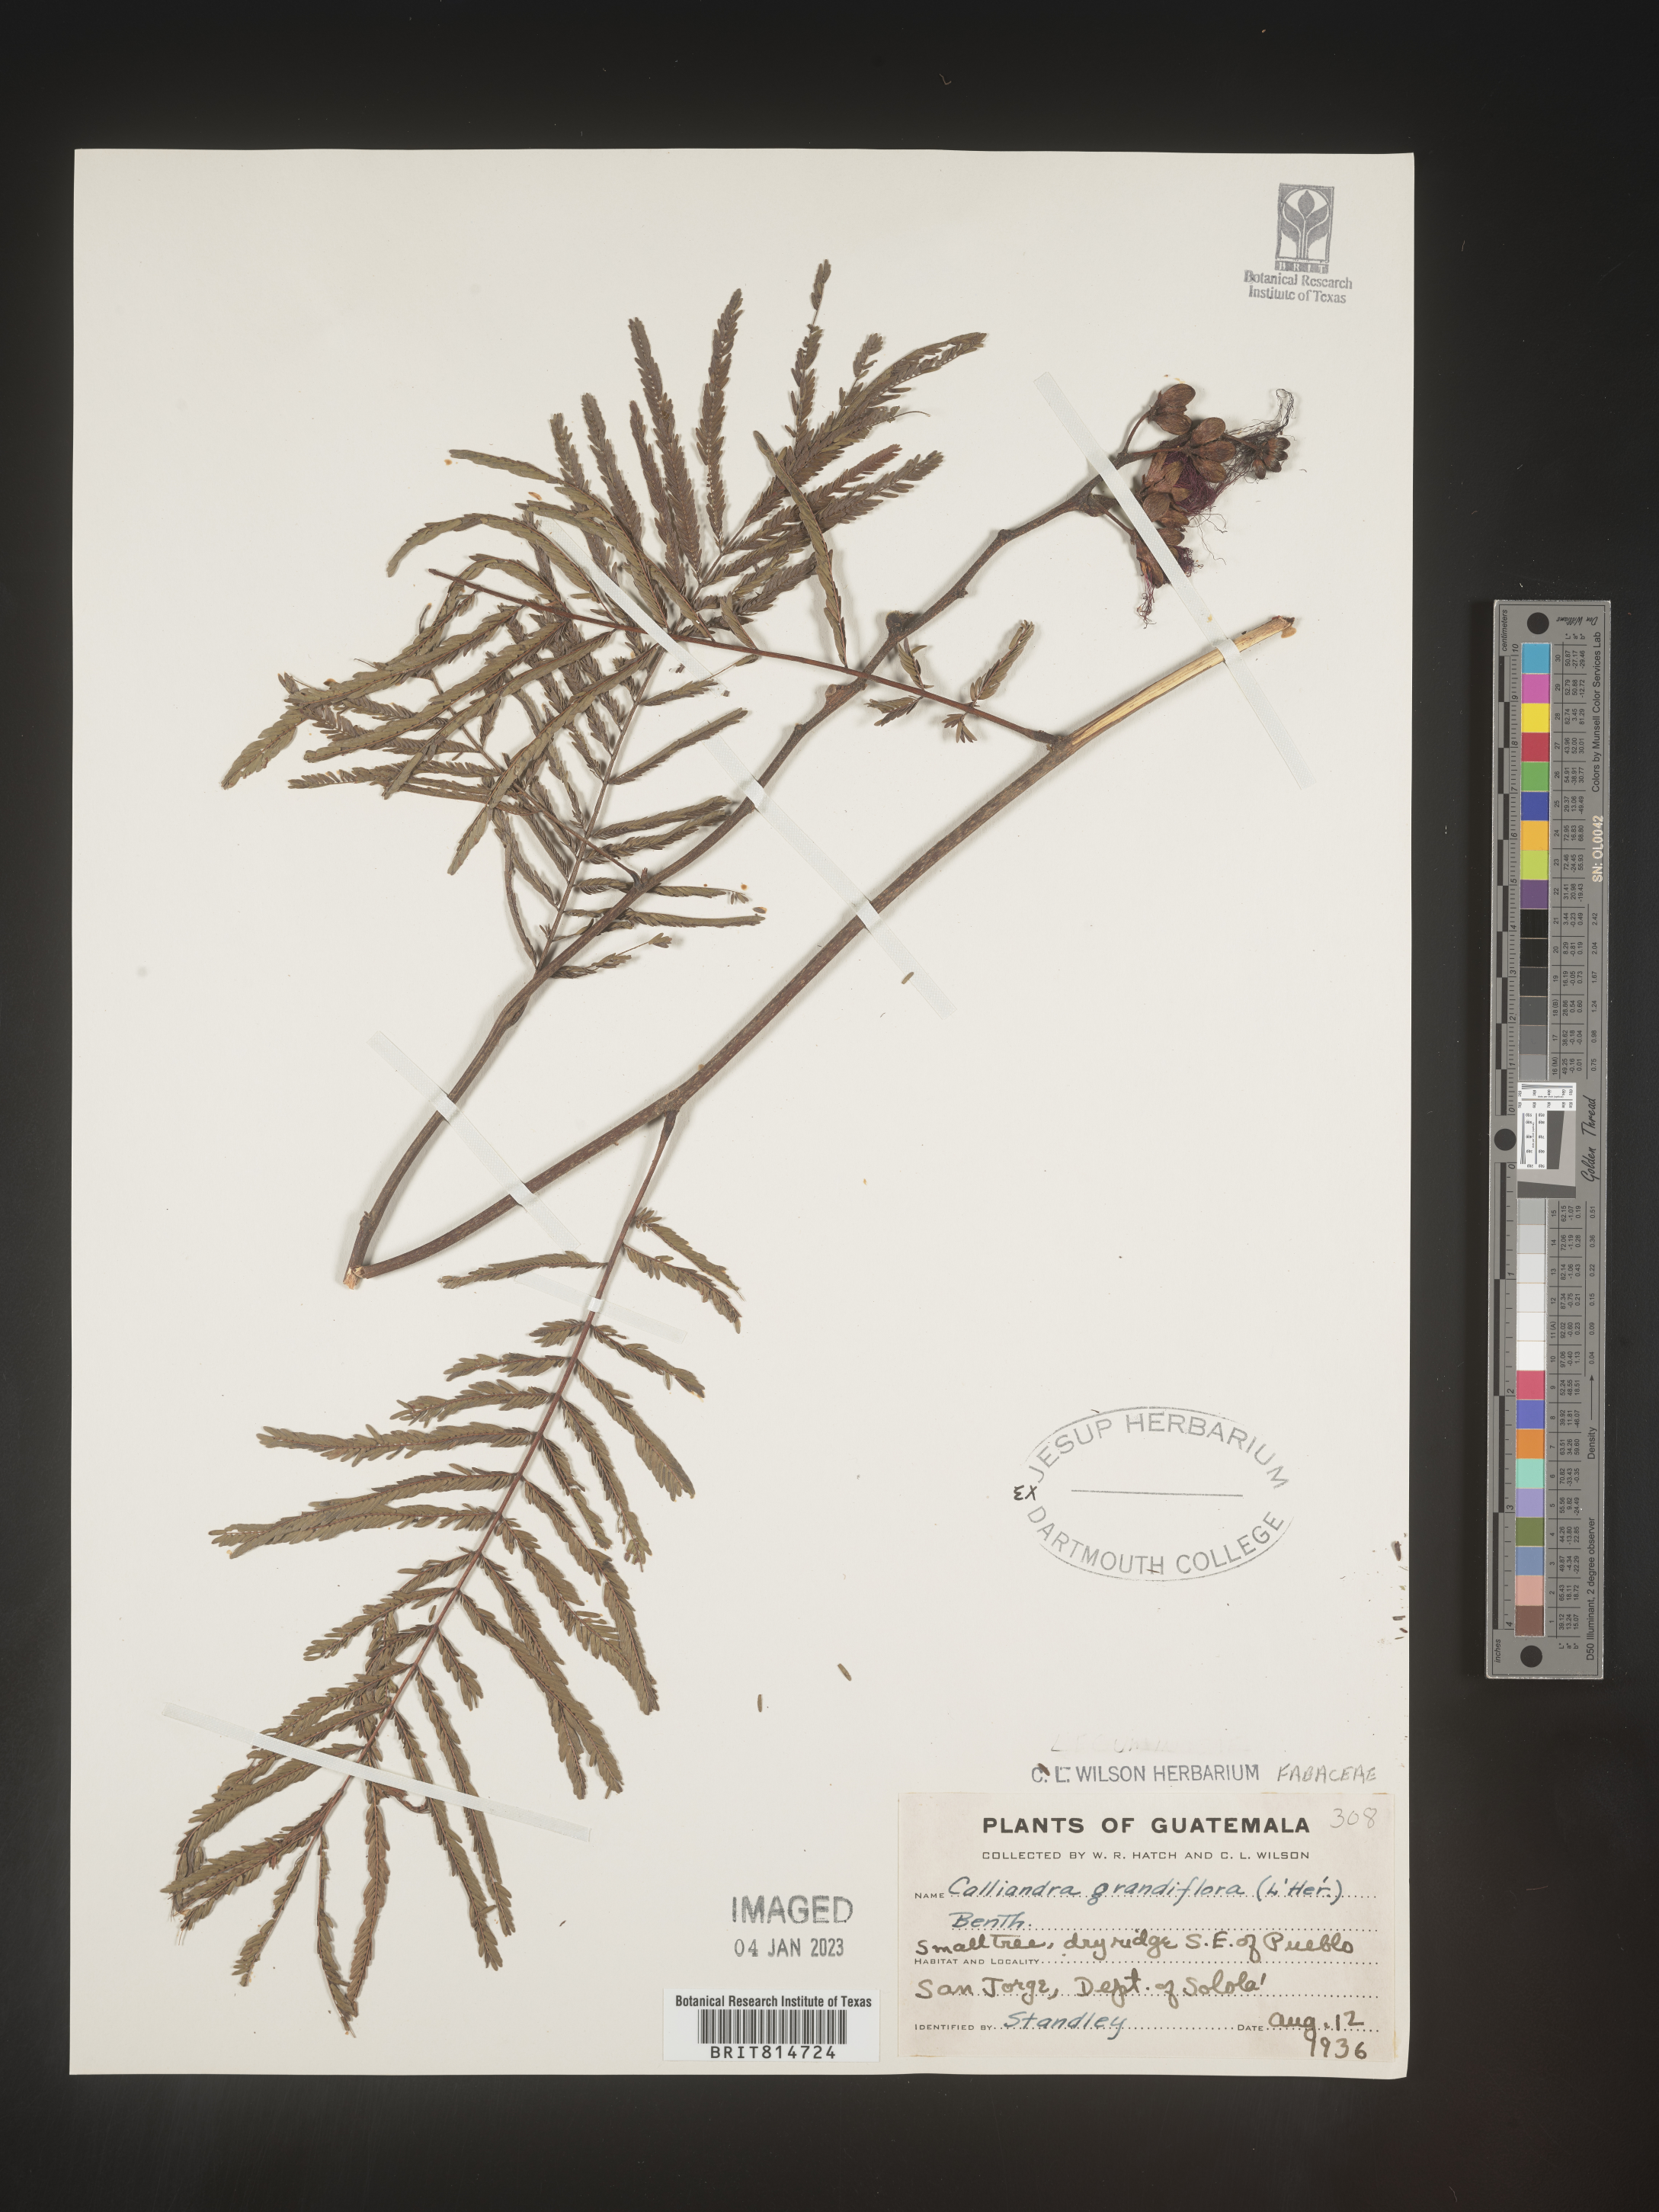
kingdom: Plantae
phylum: Tracheophyta
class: Magnoliopsida
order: Fabales
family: Fabaceae
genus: Calliandra
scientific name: Calliandra
